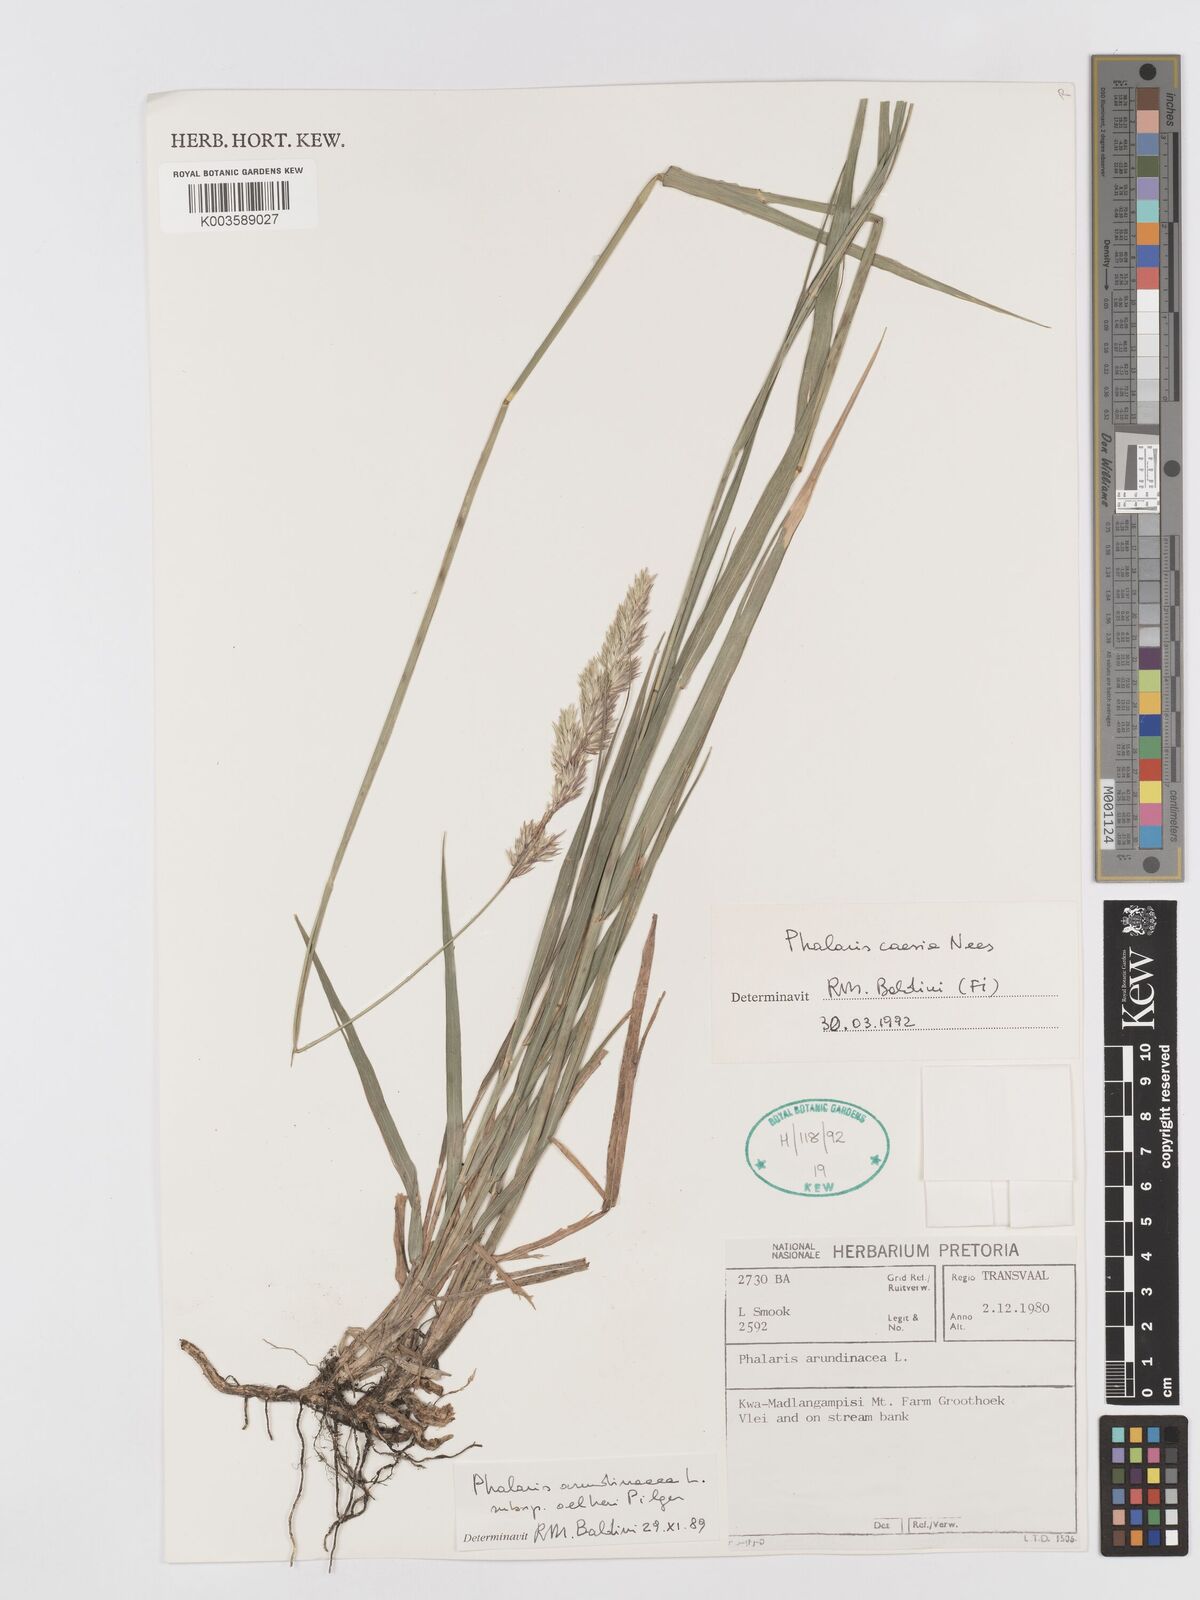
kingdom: Plantae
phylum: Tracheophyta
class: Liliopsida
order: Poales
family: Poaceae
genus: Phalaris
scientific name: Phalaris arundinacea
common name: Reed canary-grass
